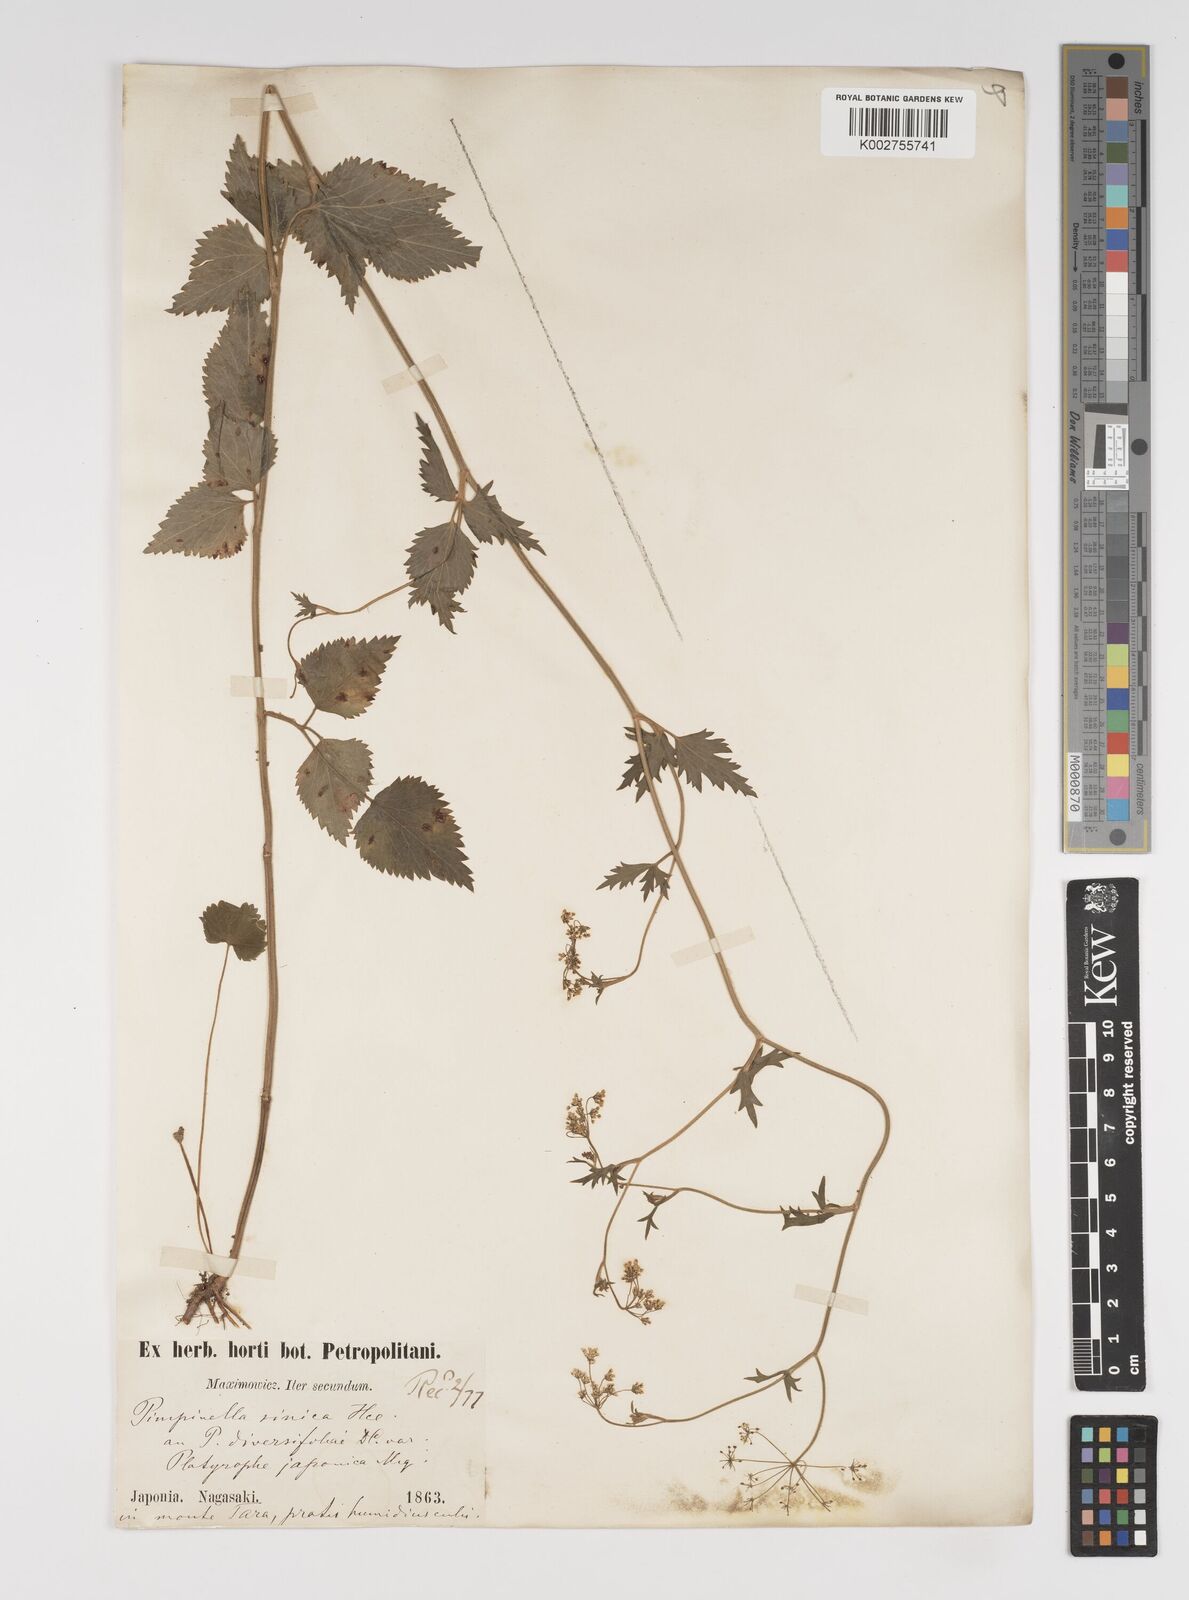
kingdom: Plantae
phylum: Tracheophyta
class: Magnoliopsida
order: Apiales
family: Apiaceae
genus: Pimpinella
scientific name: Pimpinella diversifolia
